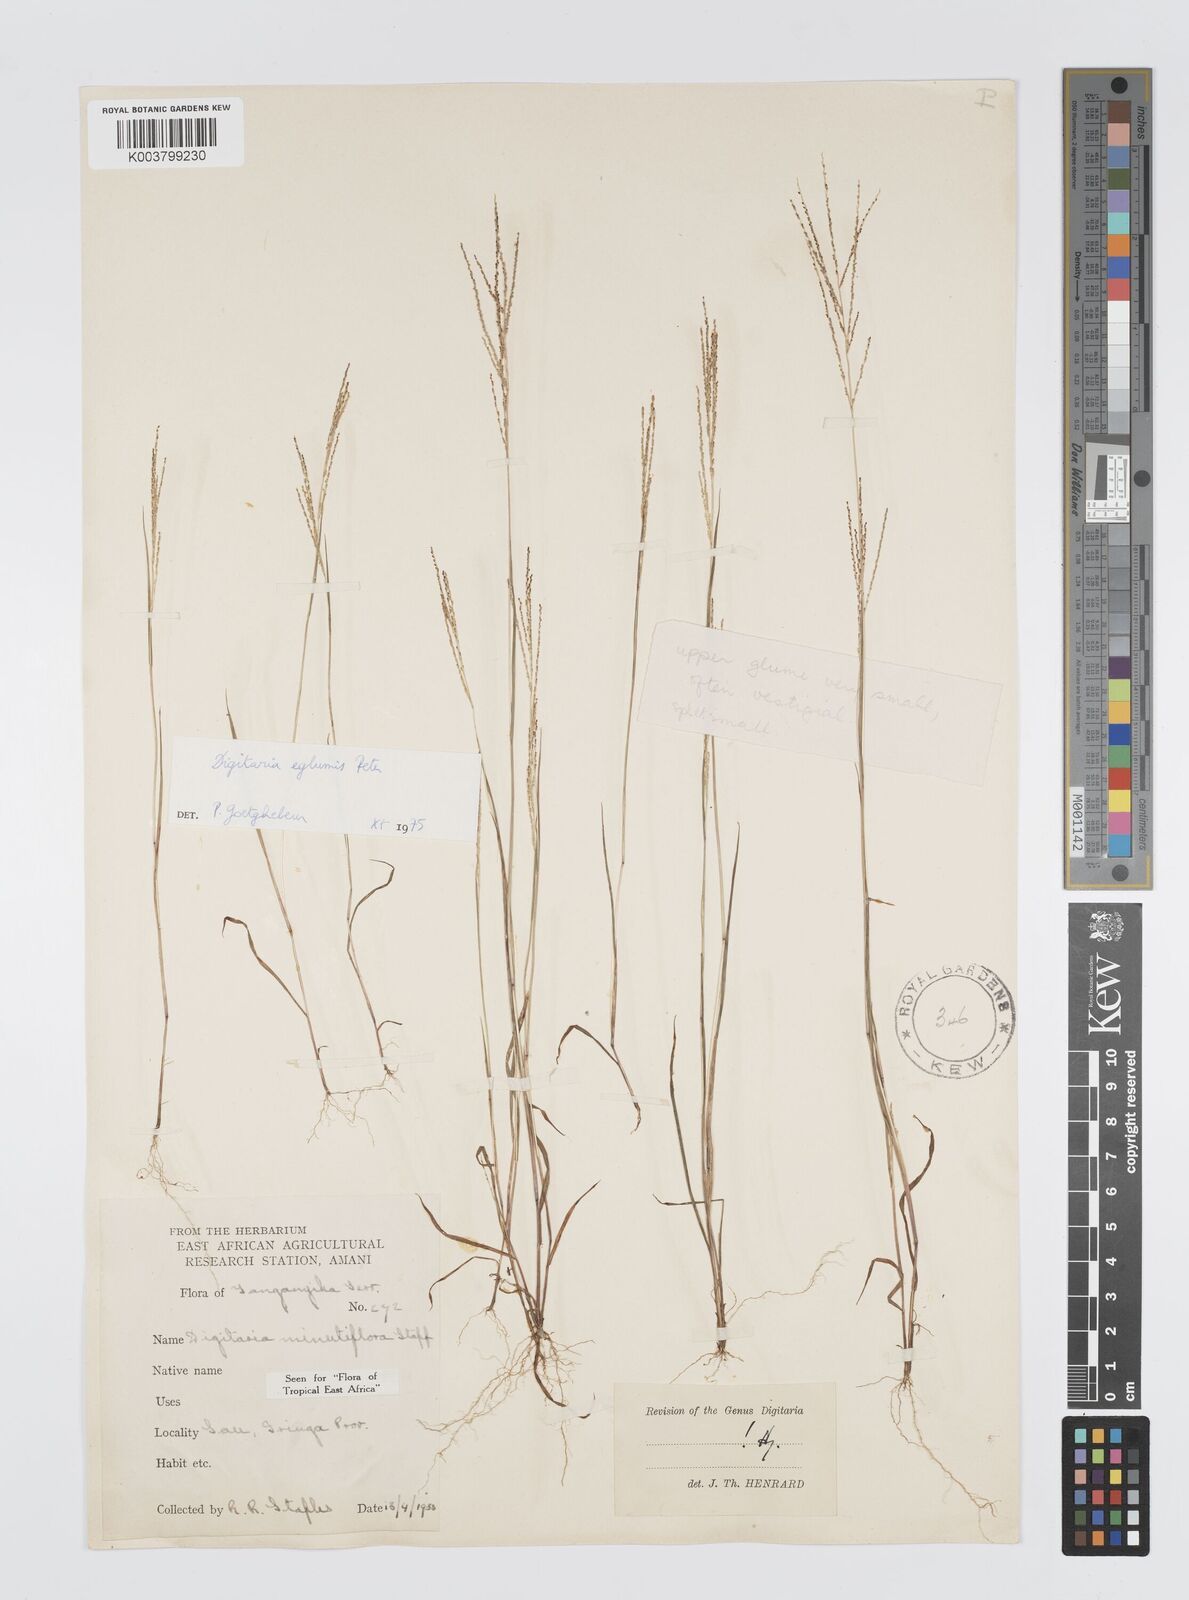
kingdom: Plantae
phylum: Tracheophyta
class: Liliopsida
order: Poales
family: Poaceae
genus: Digitaria
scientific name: Digitaria pseudodiagonalis
